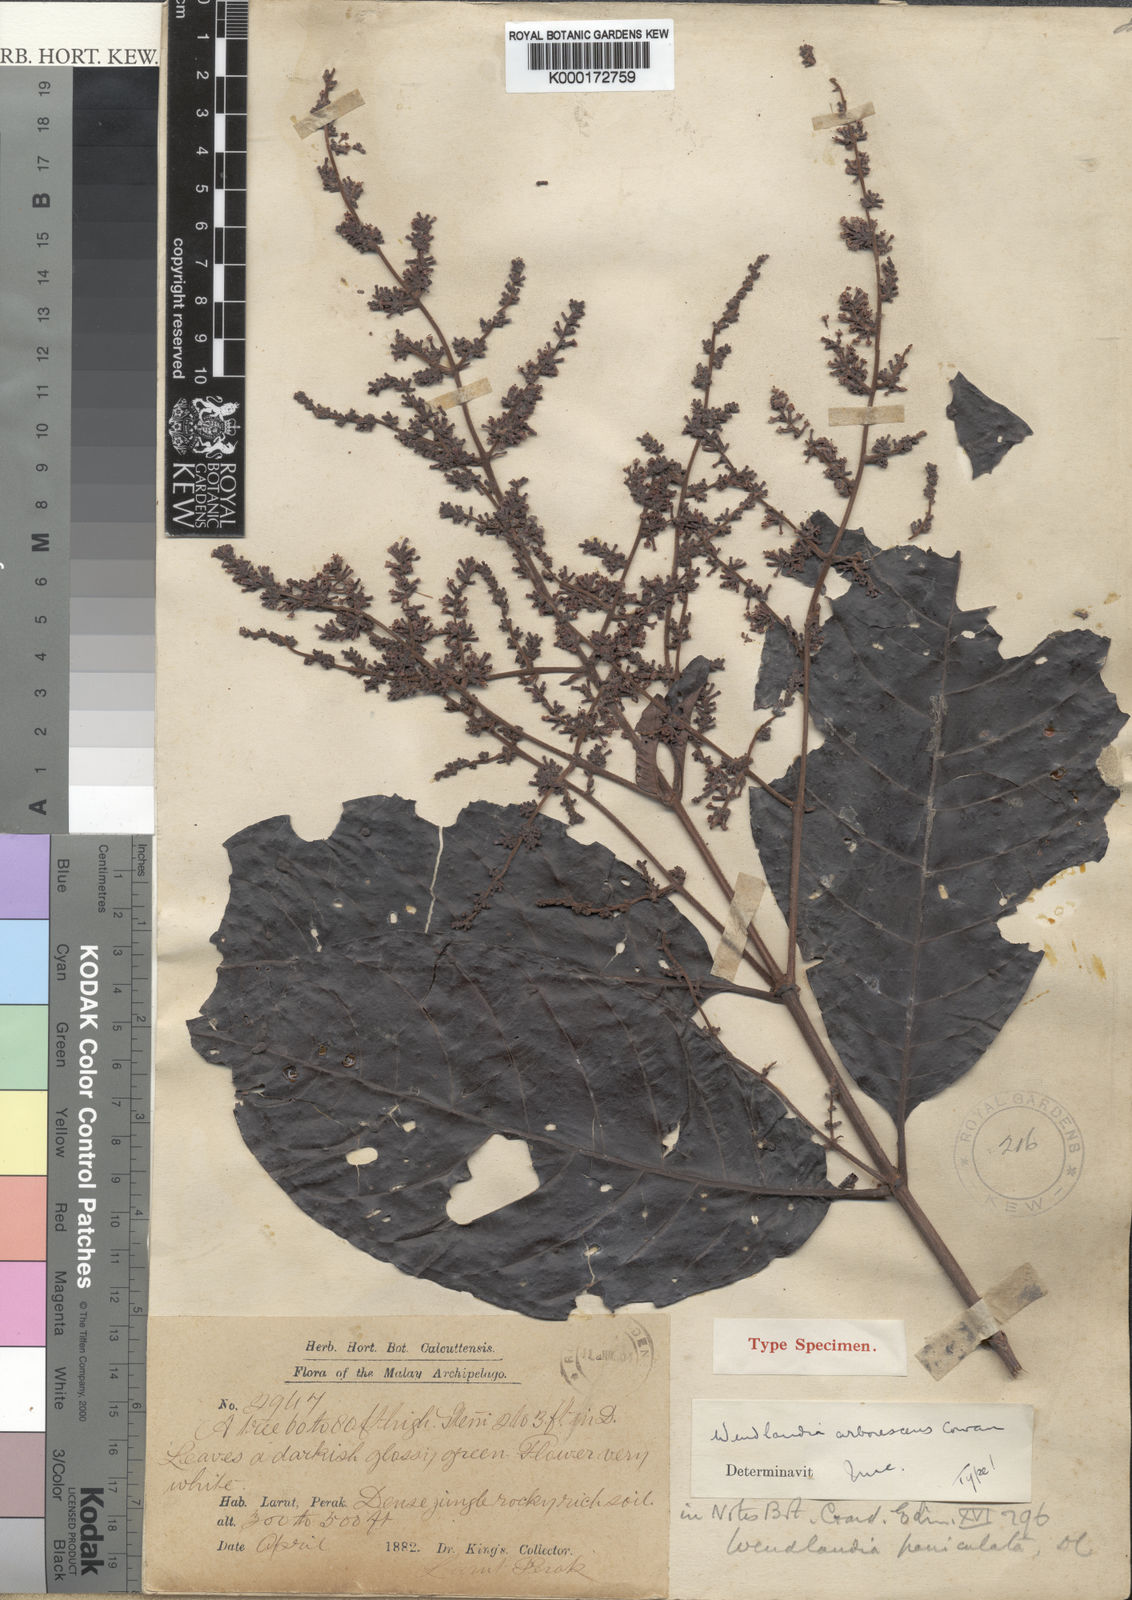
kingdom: Plantae
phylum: Tracheophyta
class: Magnoliopsida
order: Gentianales
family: Rubiaceae
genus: Wendlandia
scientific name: Wendlandia arborescens
